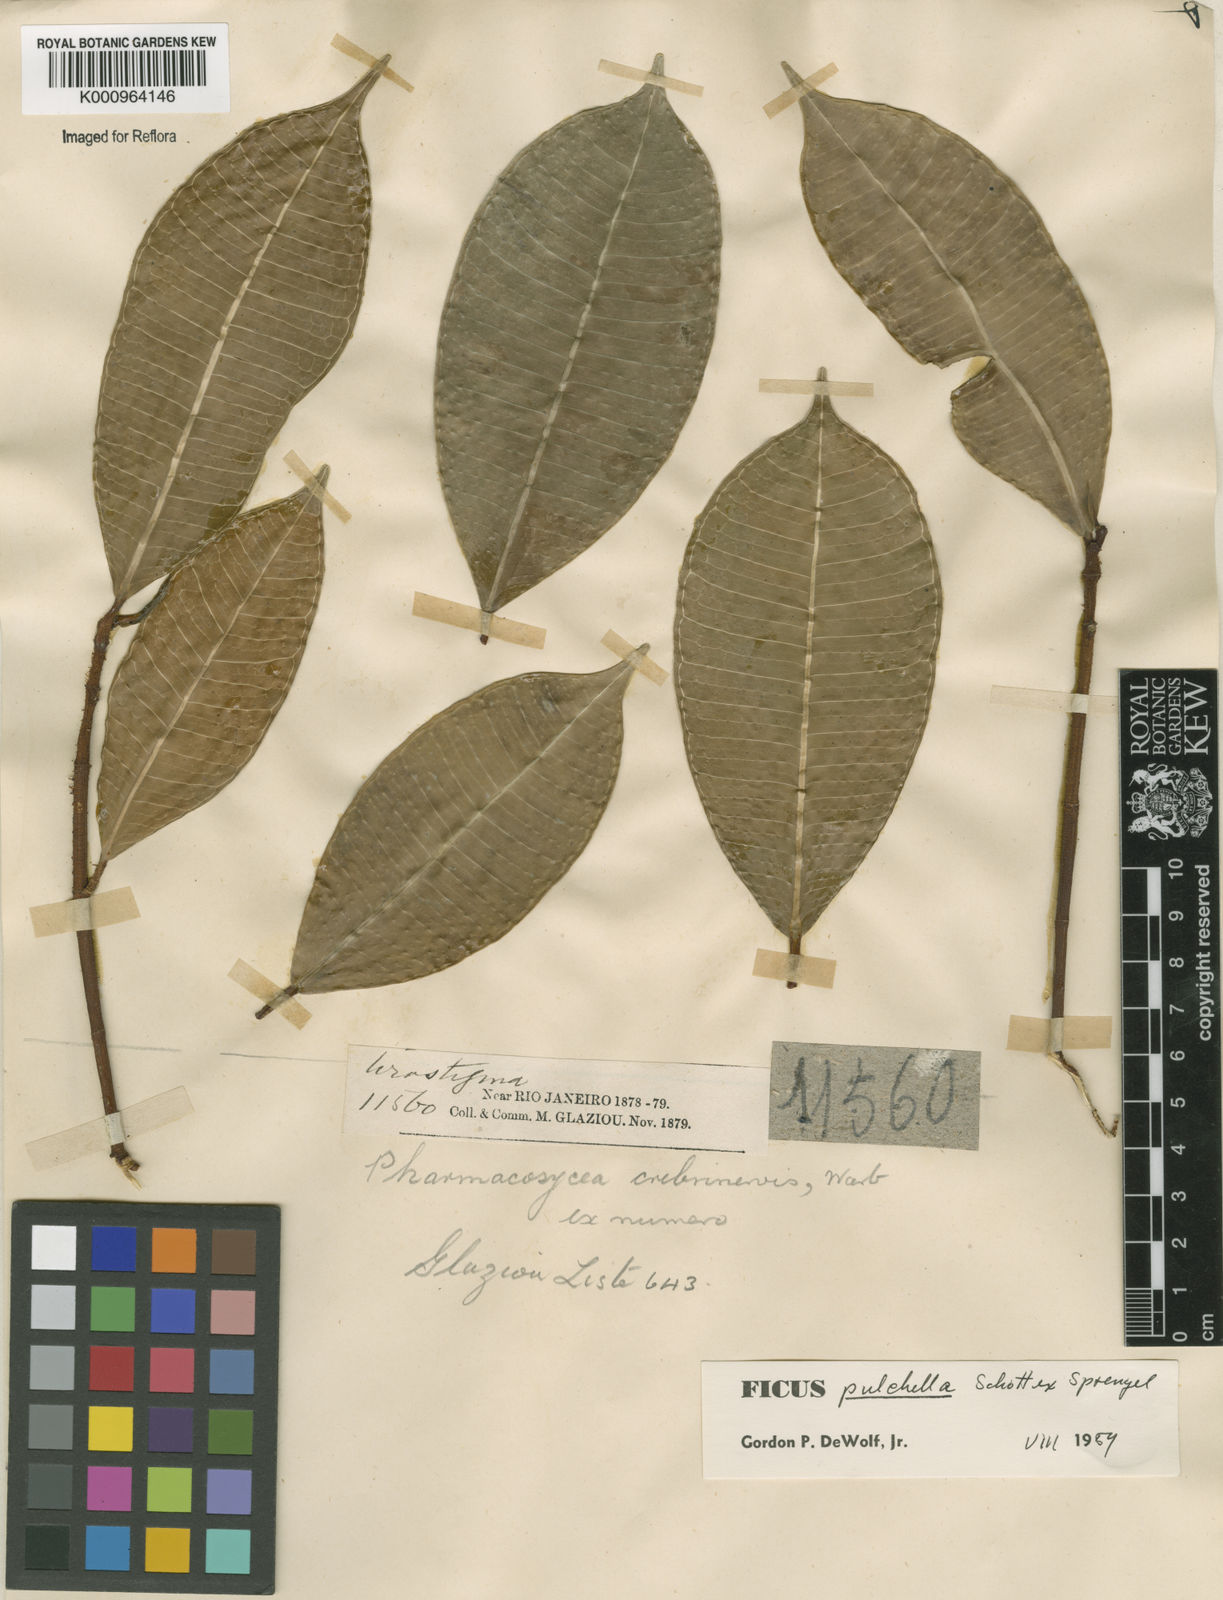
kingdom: Plantae
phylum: Tracheophyta
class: Magnoliopsida
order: Rosales
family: Moraceae
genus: Ficus
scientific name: Ficus pulchella
